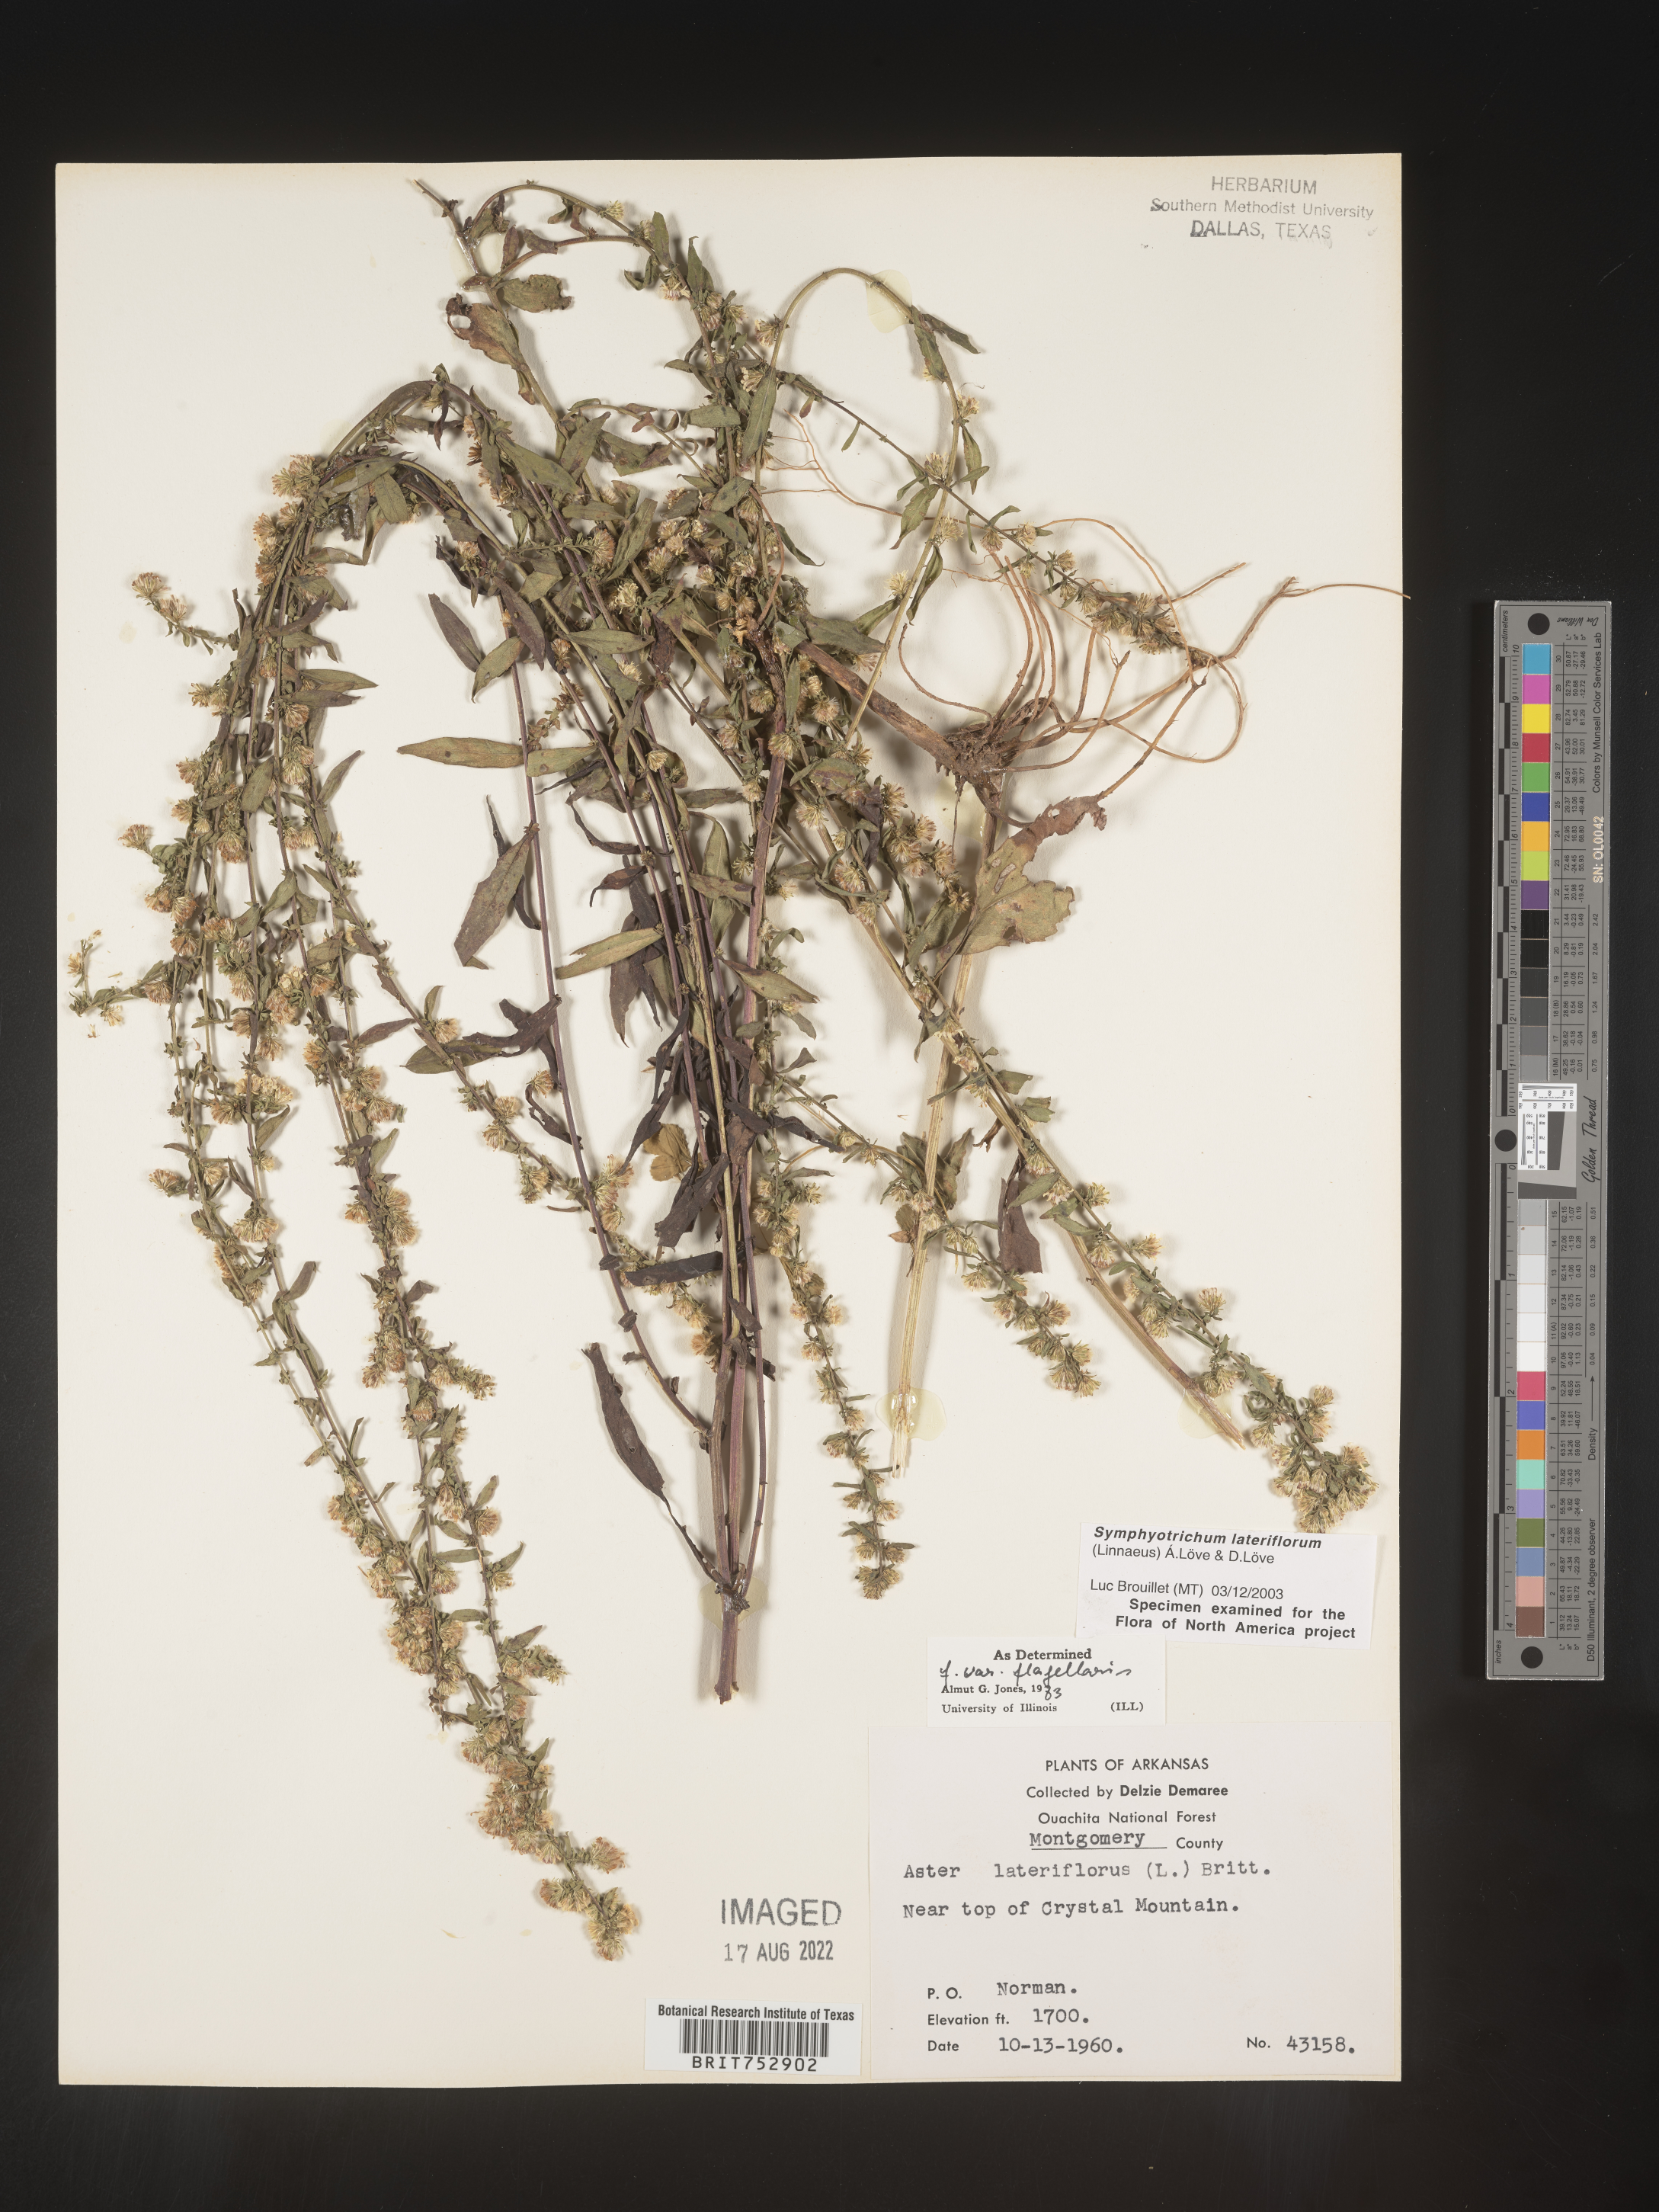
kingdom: Plantae
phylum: Tracheophyta
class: Magnoliopsida
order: Asterales
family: Asteraceae
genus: Symphyotrichum
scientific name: Symphyotrichum lateriflorum
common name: Calico aster
